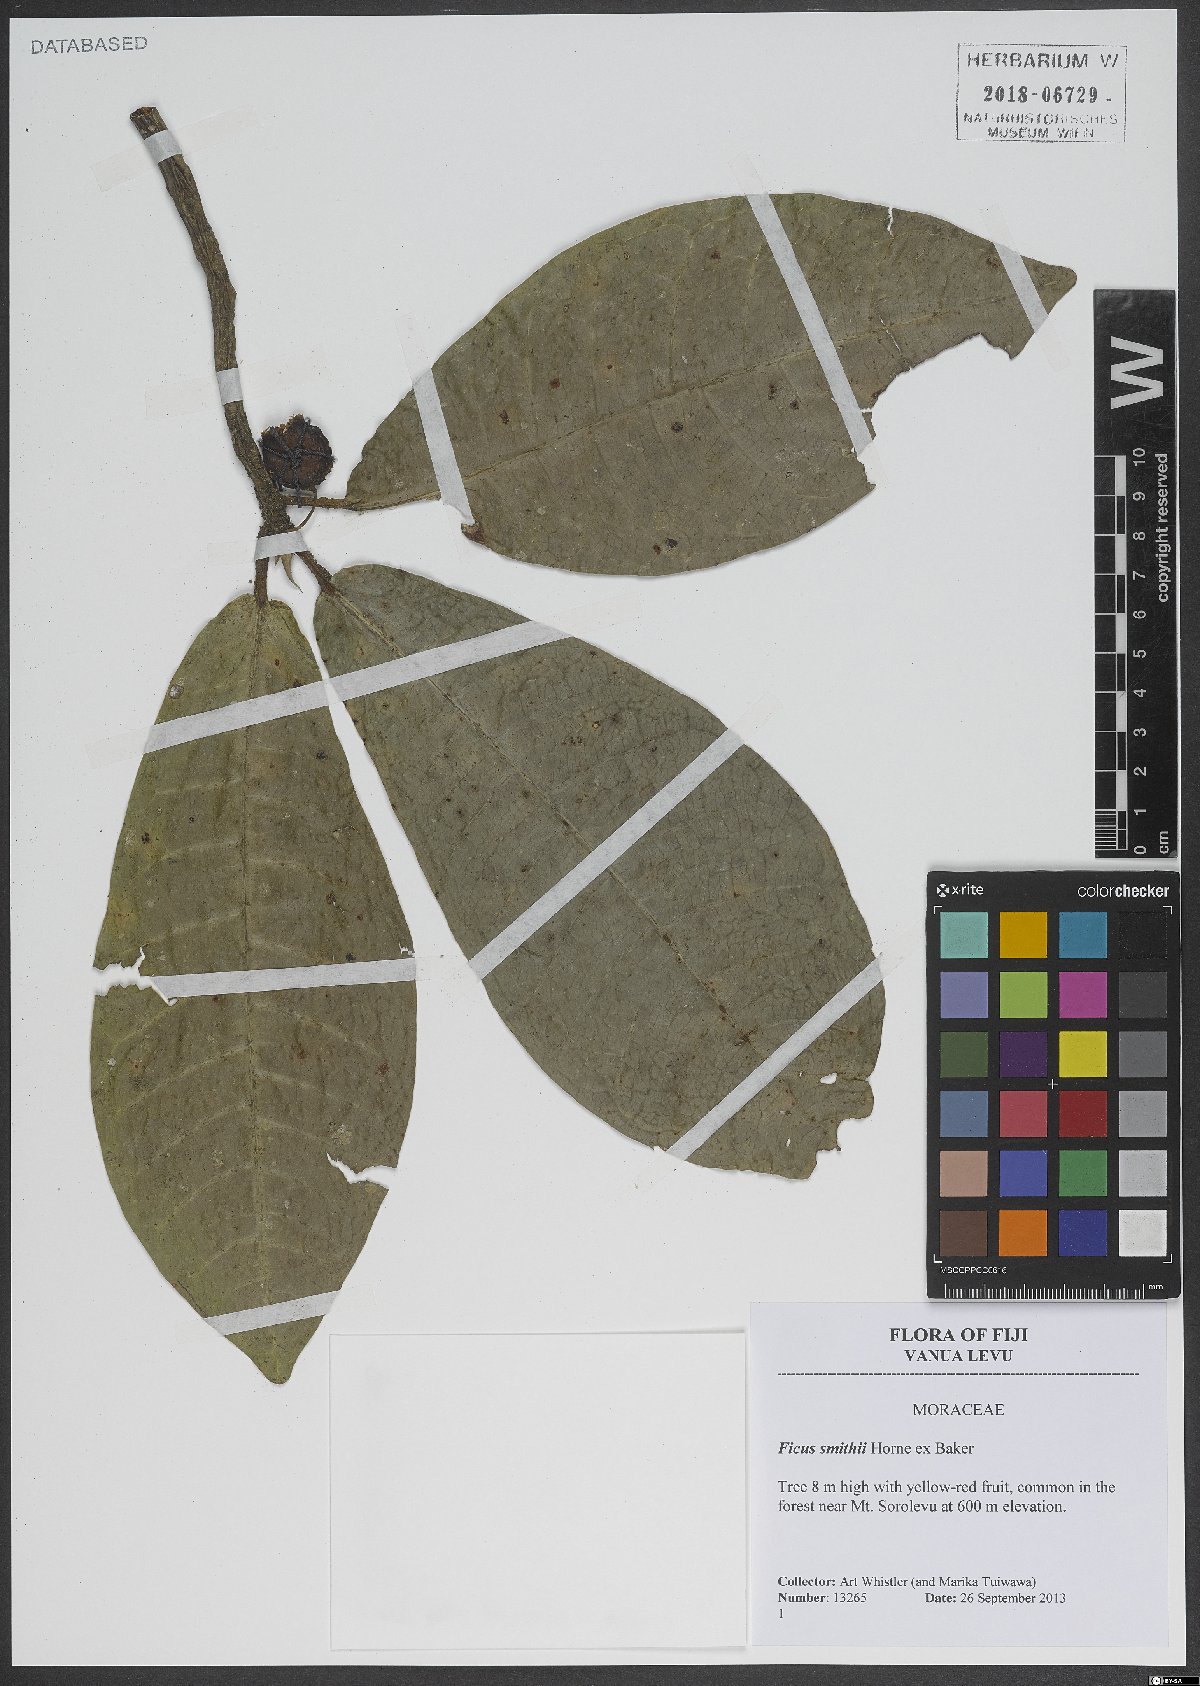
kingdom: Plantae
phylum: Tracheophyta
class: Magnoliopsida
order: Rosales
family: Moraceae
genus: Ficus
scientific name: Ficus smithii
